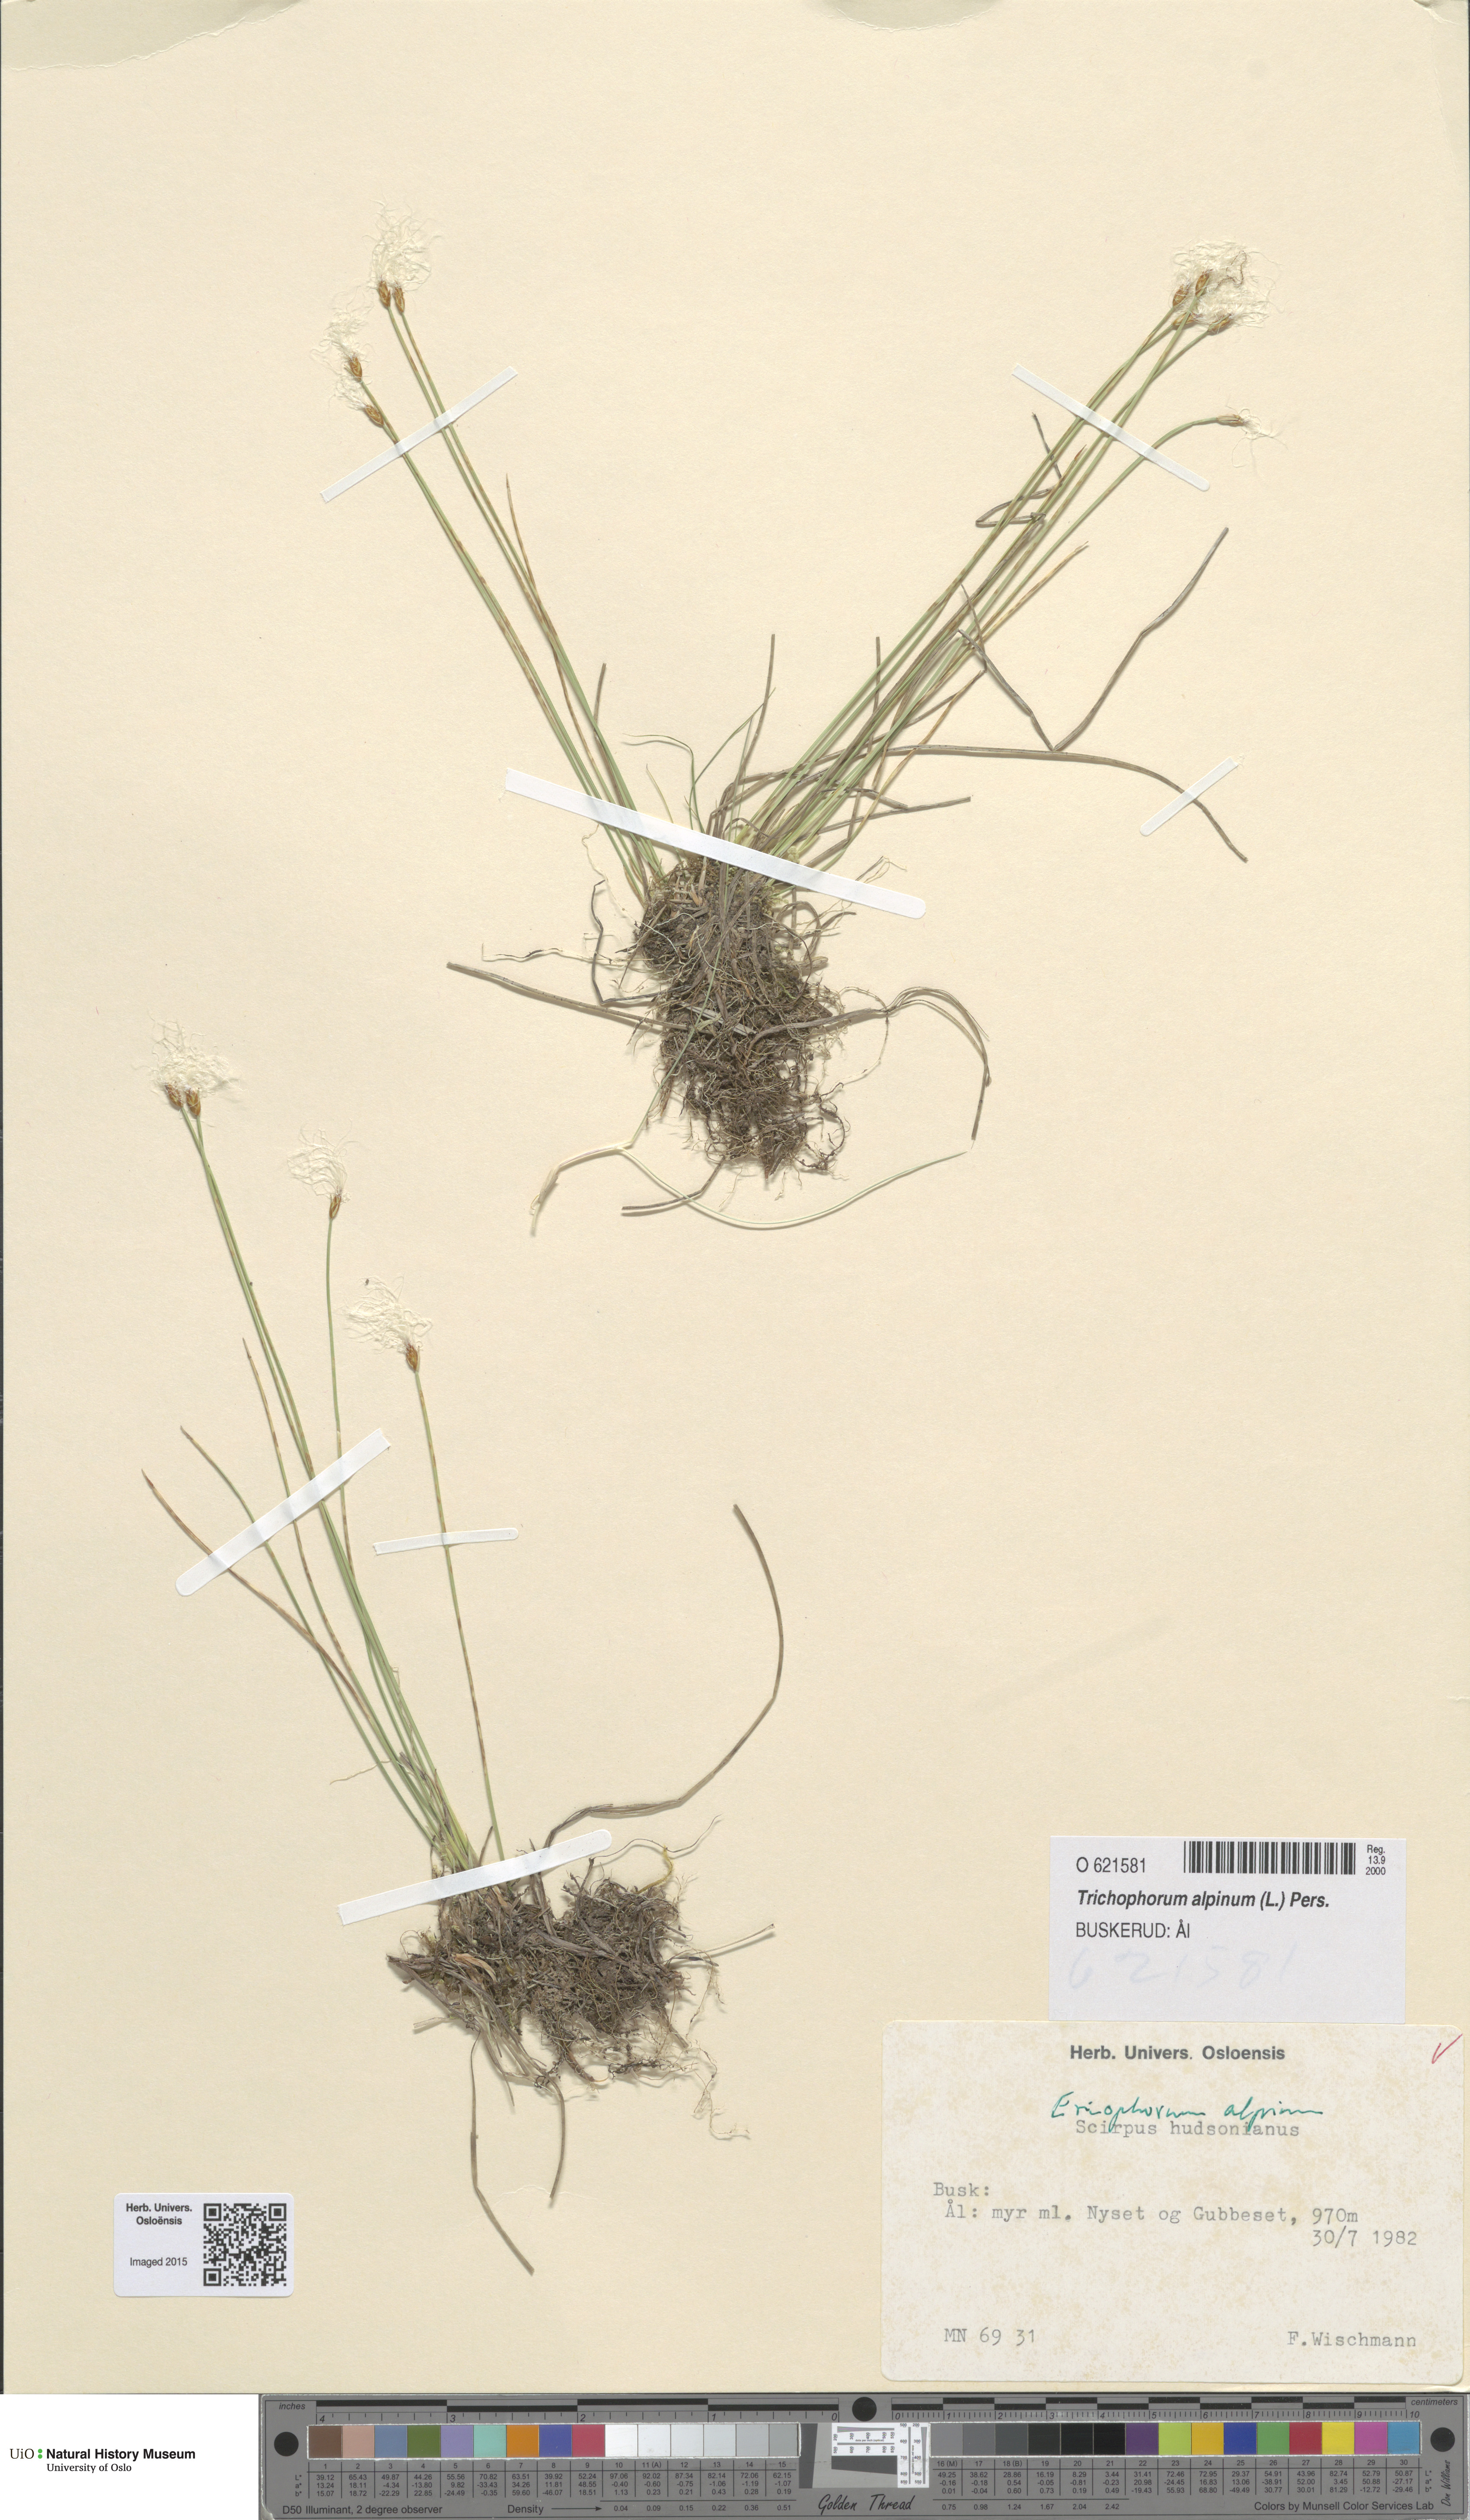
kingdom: Plantae
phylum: Tracheophyta
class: Liliopsida
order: Poales
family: Cyperaceae
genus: Trichophorum
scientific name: Trichophorum alpinum
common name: Alpine bulrush
